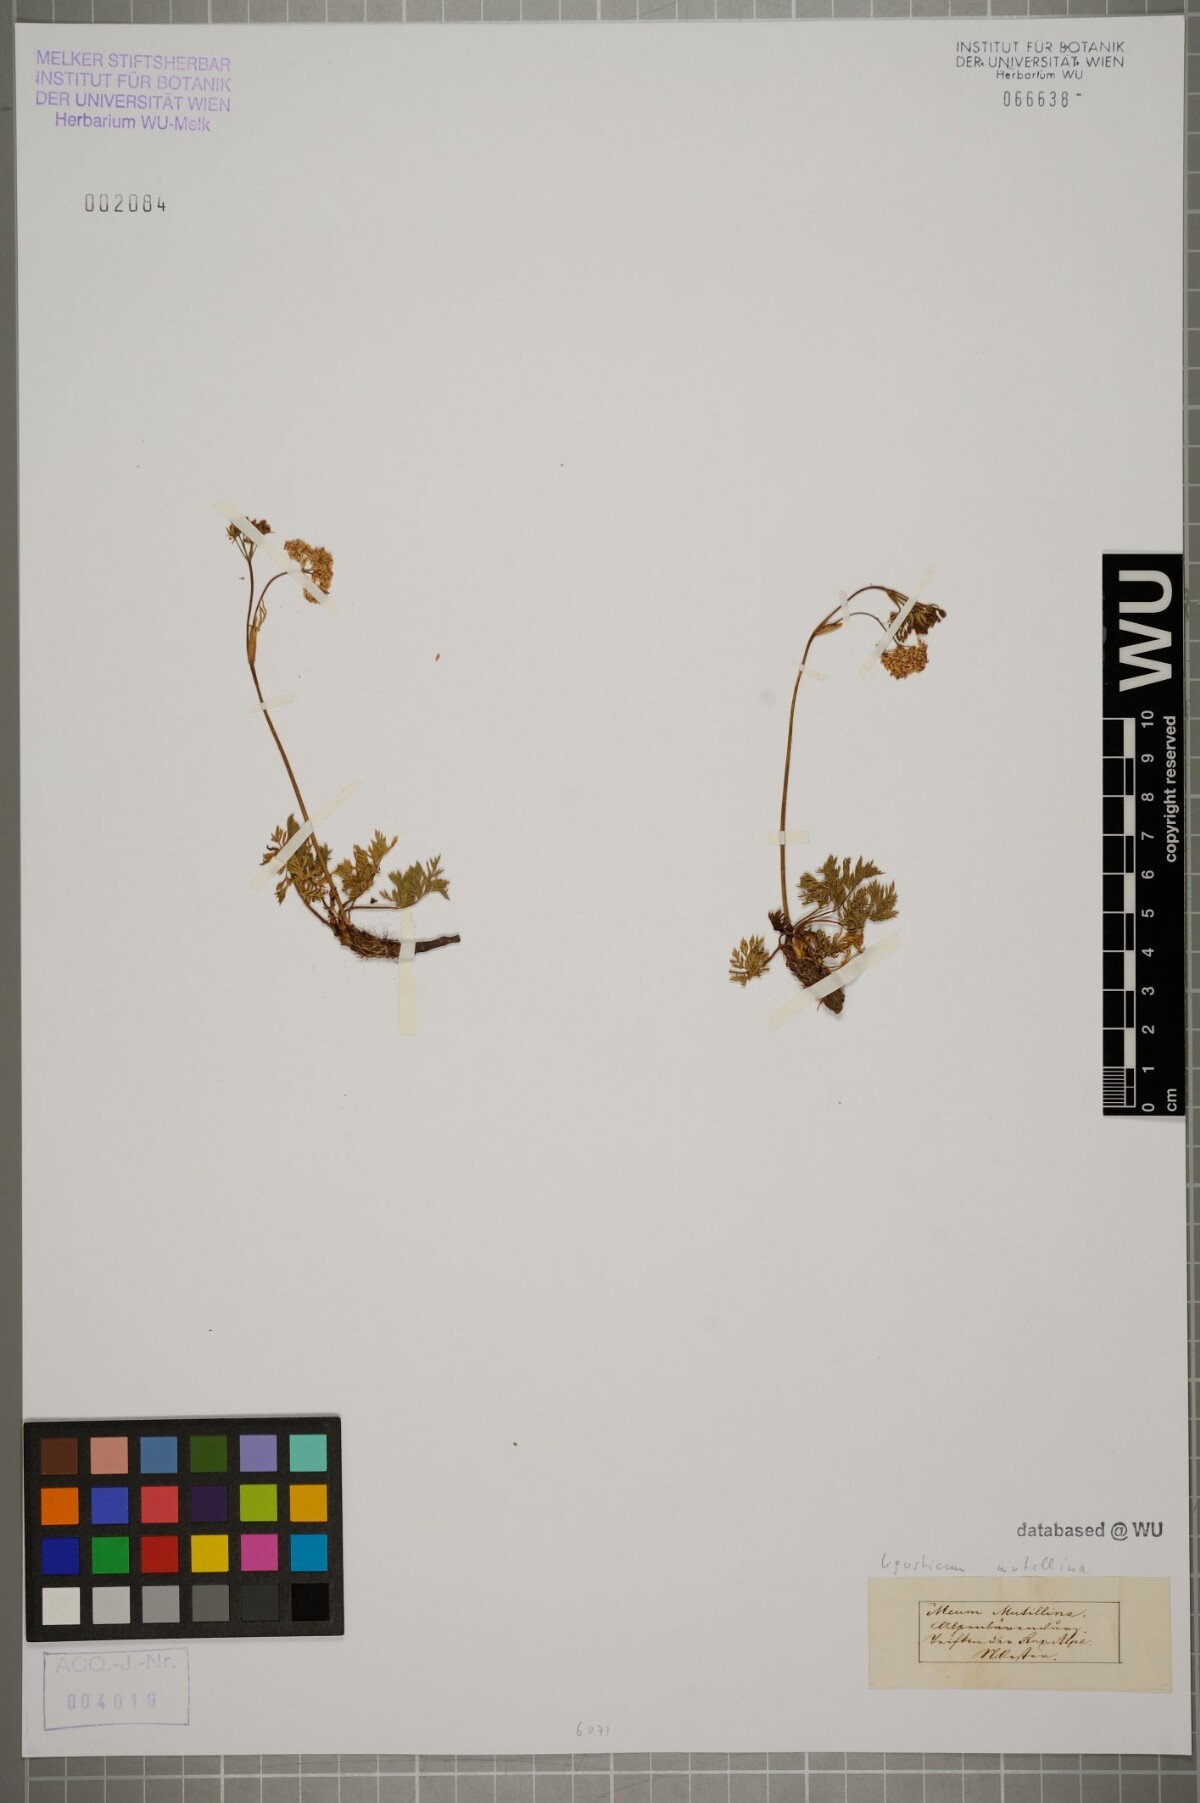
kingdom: Plantae
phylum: Tracheophyta
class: Magnoliopsida
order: Apiales
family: Apiaceae
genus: Mutellina
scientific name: Mutellina adonidifolia
